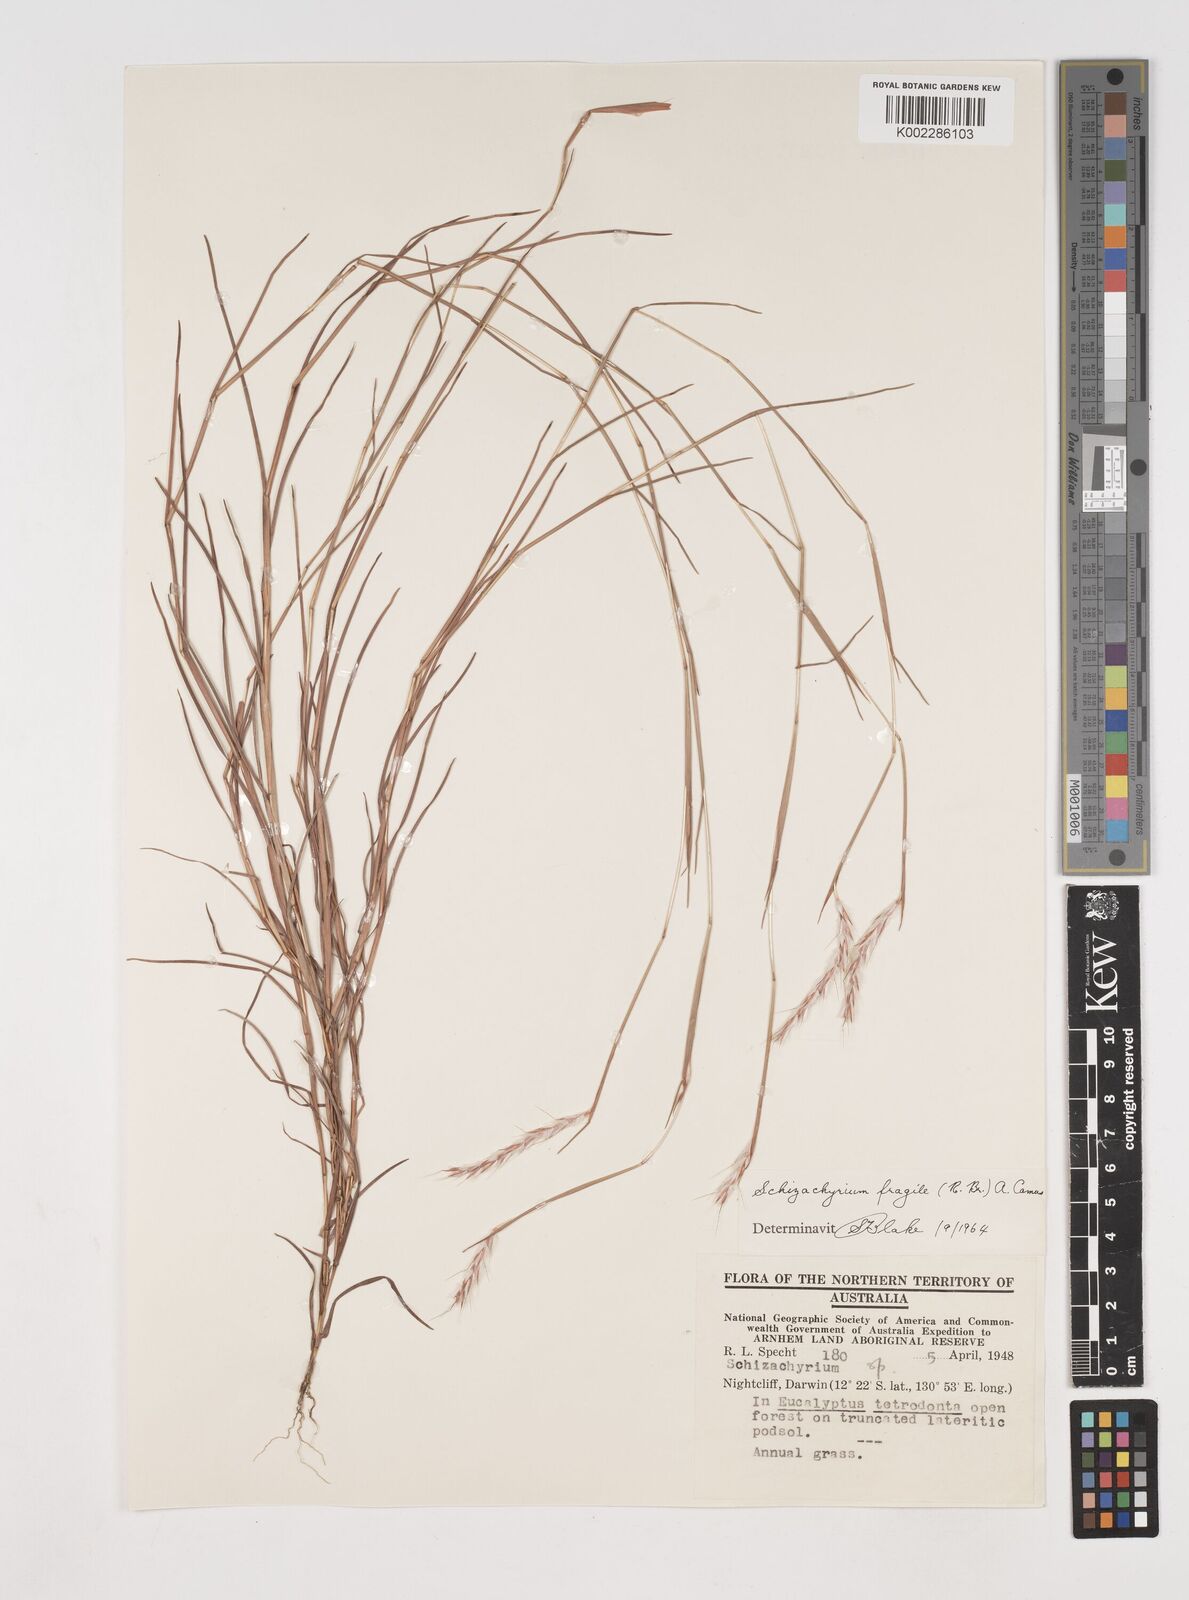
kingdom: Plantae
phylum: Tracheophyta
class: Liliopsida
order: Poales
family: Poaceae
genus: Schizachyrium
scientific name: Schizachyrium fragile
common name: Red spathe grass
